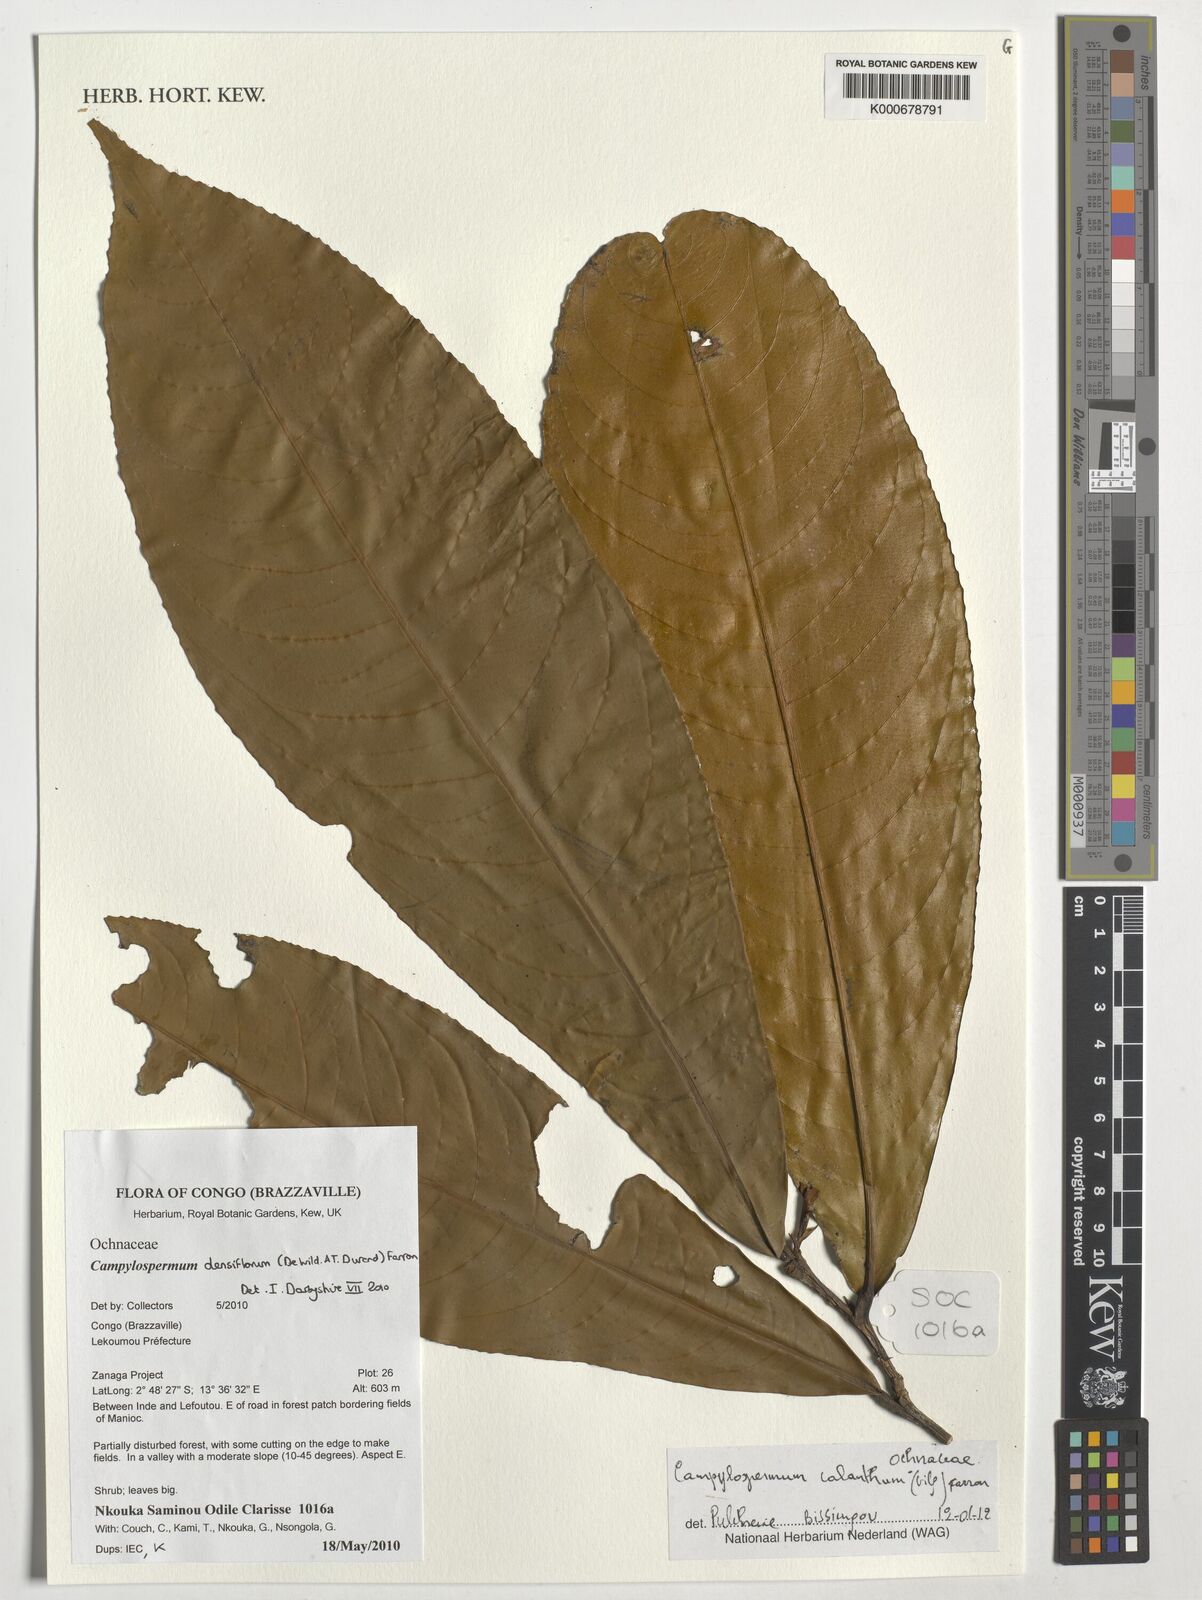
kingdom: Plantae
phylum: Tracheophyta
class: Magnoliopsida
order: Malpighiales
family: Ochnaceae
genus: Campylospermum
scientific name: Campylospermum calanthum
